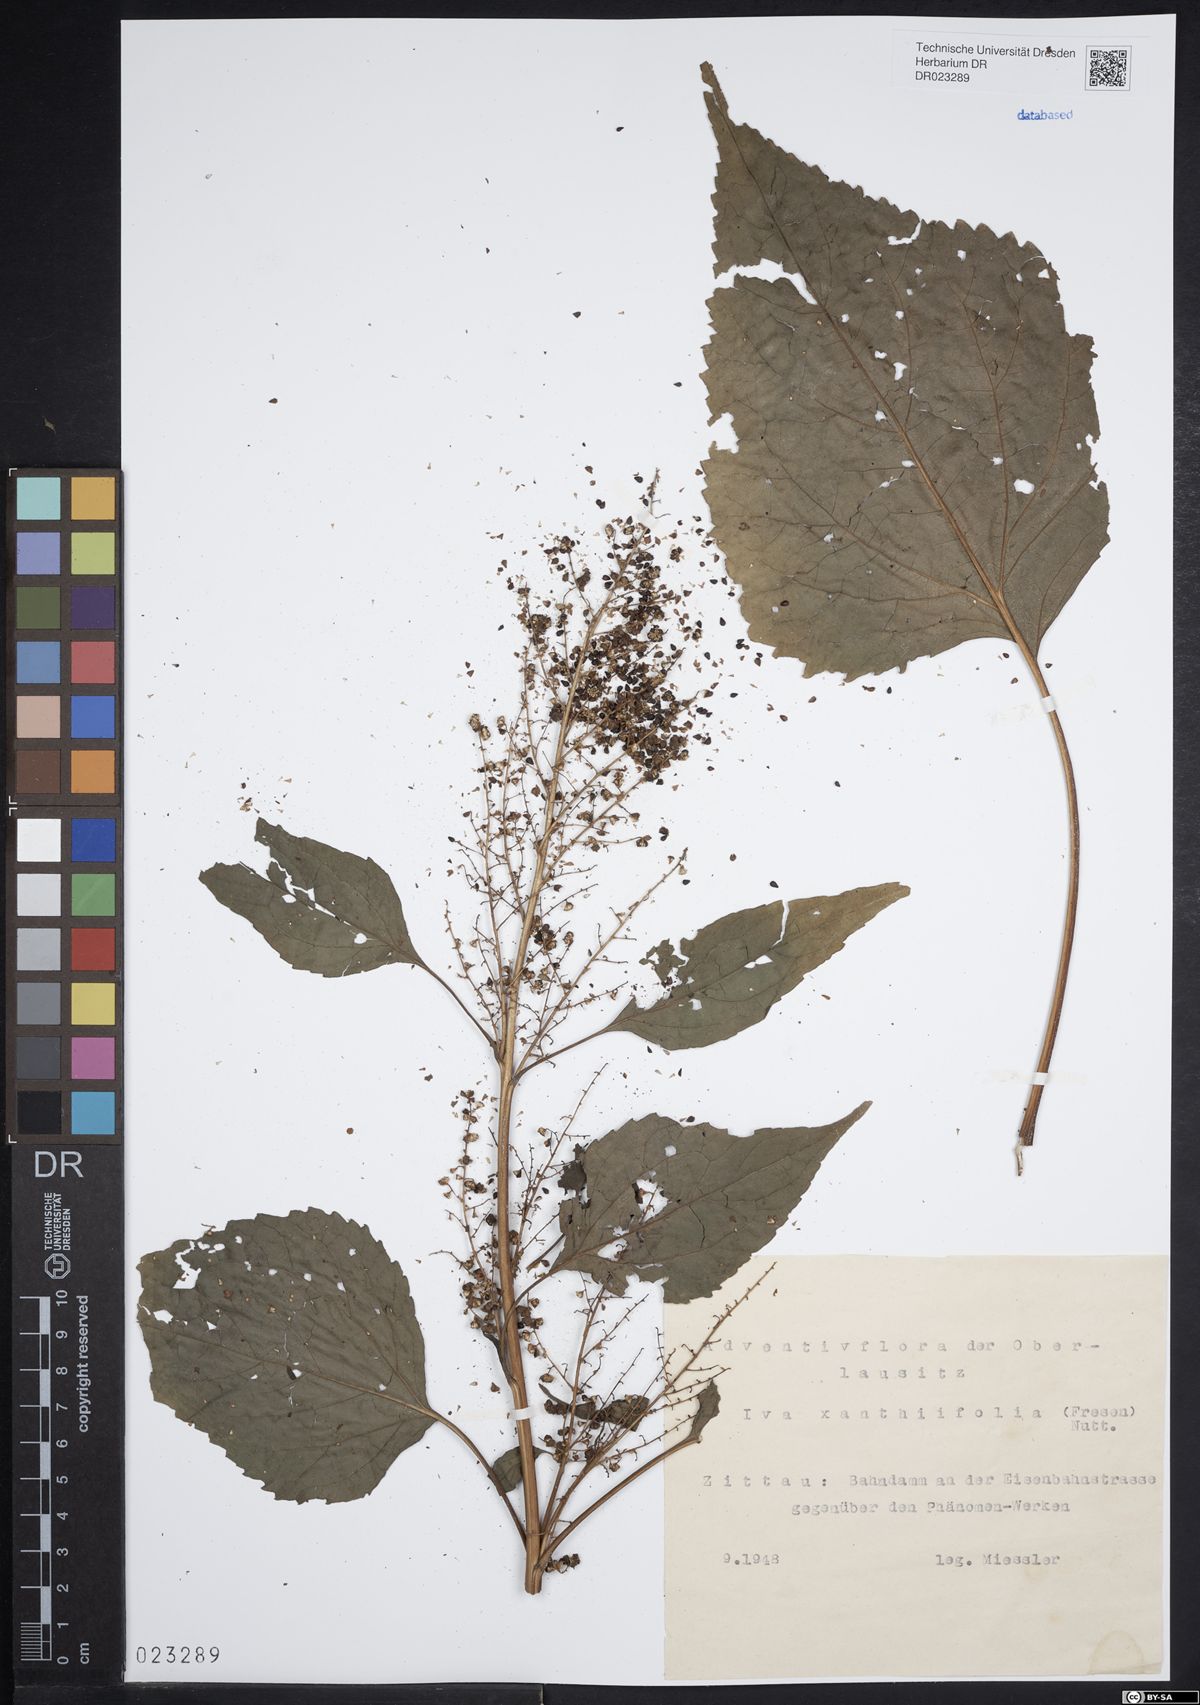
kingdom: Plantae
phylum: Tracheophyta
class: Magnoliopsida
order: Asterales
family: Asteraceae
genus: Cyclachaena
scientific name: Cyclachaena xanthiifolia
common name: Giant sumpweed
